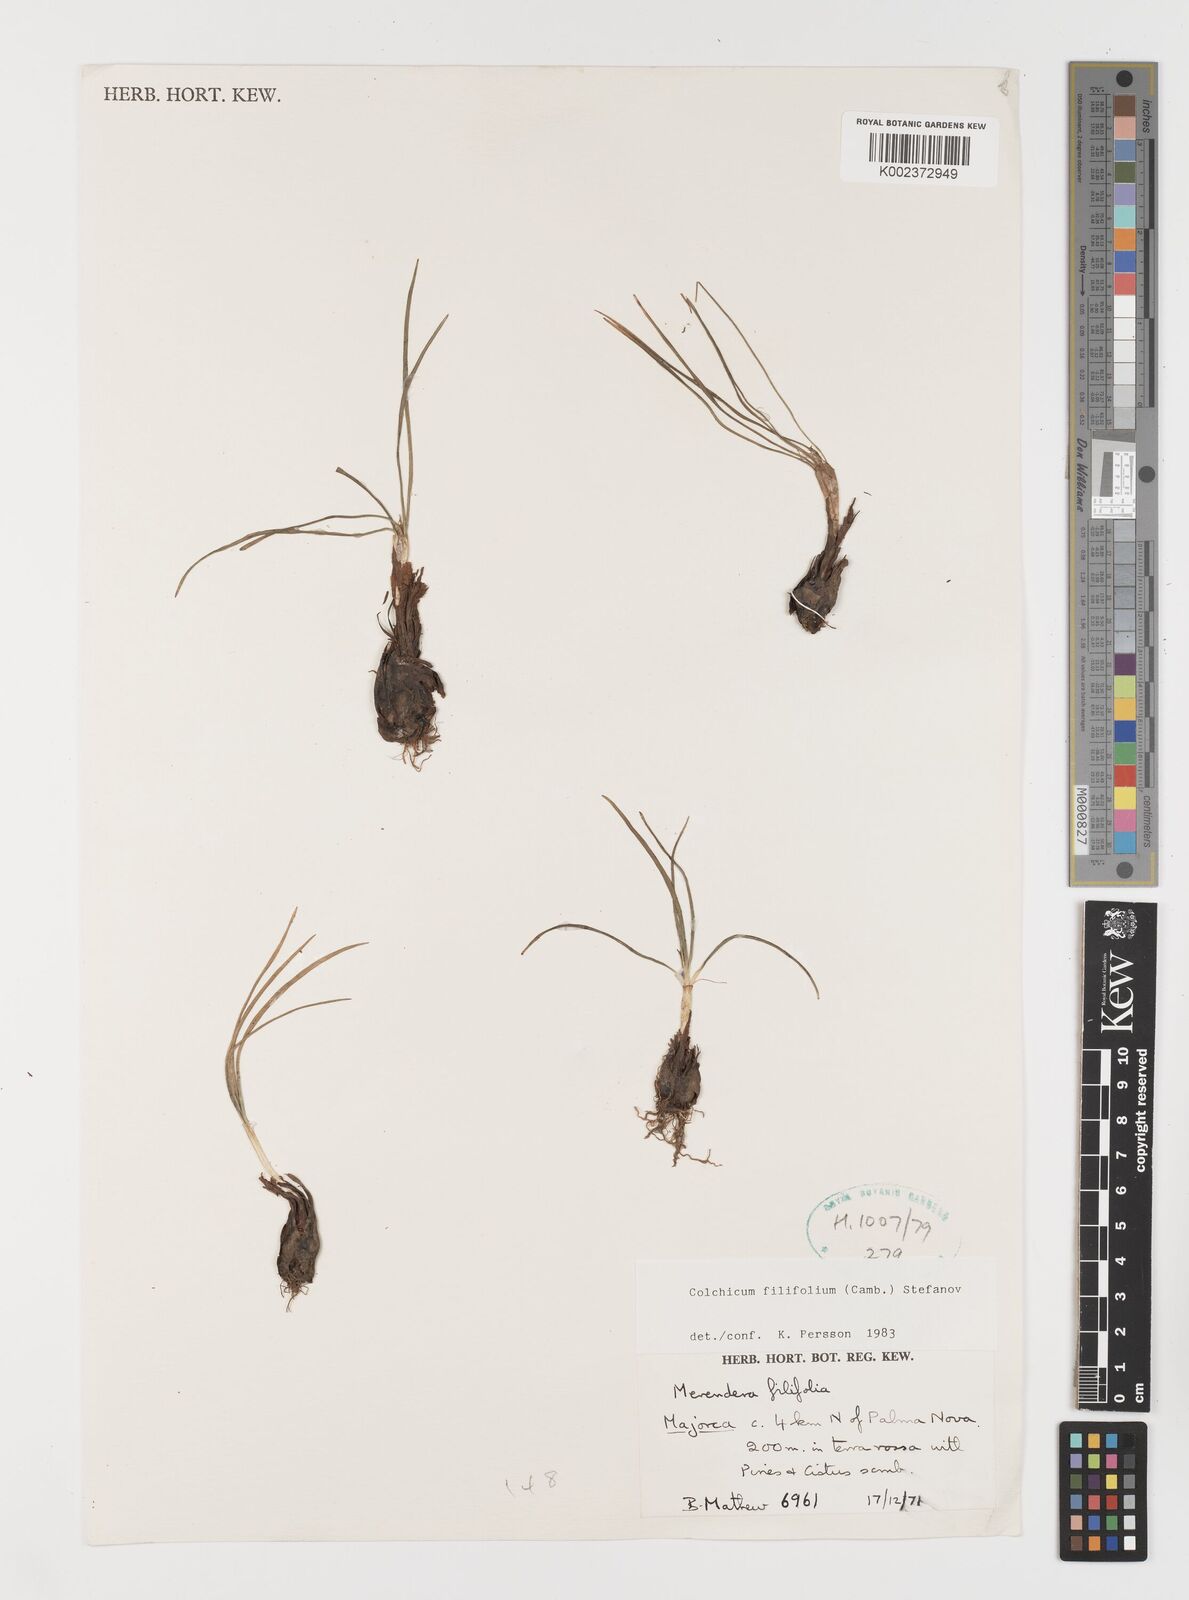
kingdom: Plantae
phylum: Tracheophyta
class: Liliopsida
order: Liliales
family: Colchicaceae
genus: Colchicum
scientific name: Colchicum filifolium
